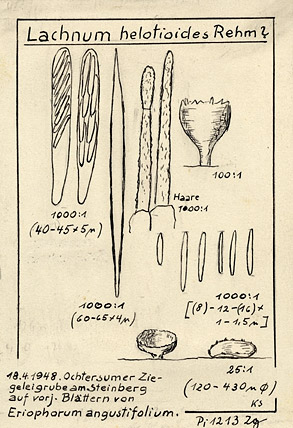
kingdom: Plantae
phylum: Tracheophyta
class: Liliopsida
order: Poales
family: Cyperaceae
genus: Eriophorum
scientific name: Eriophorum angustifolium
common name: Common cottongrass
